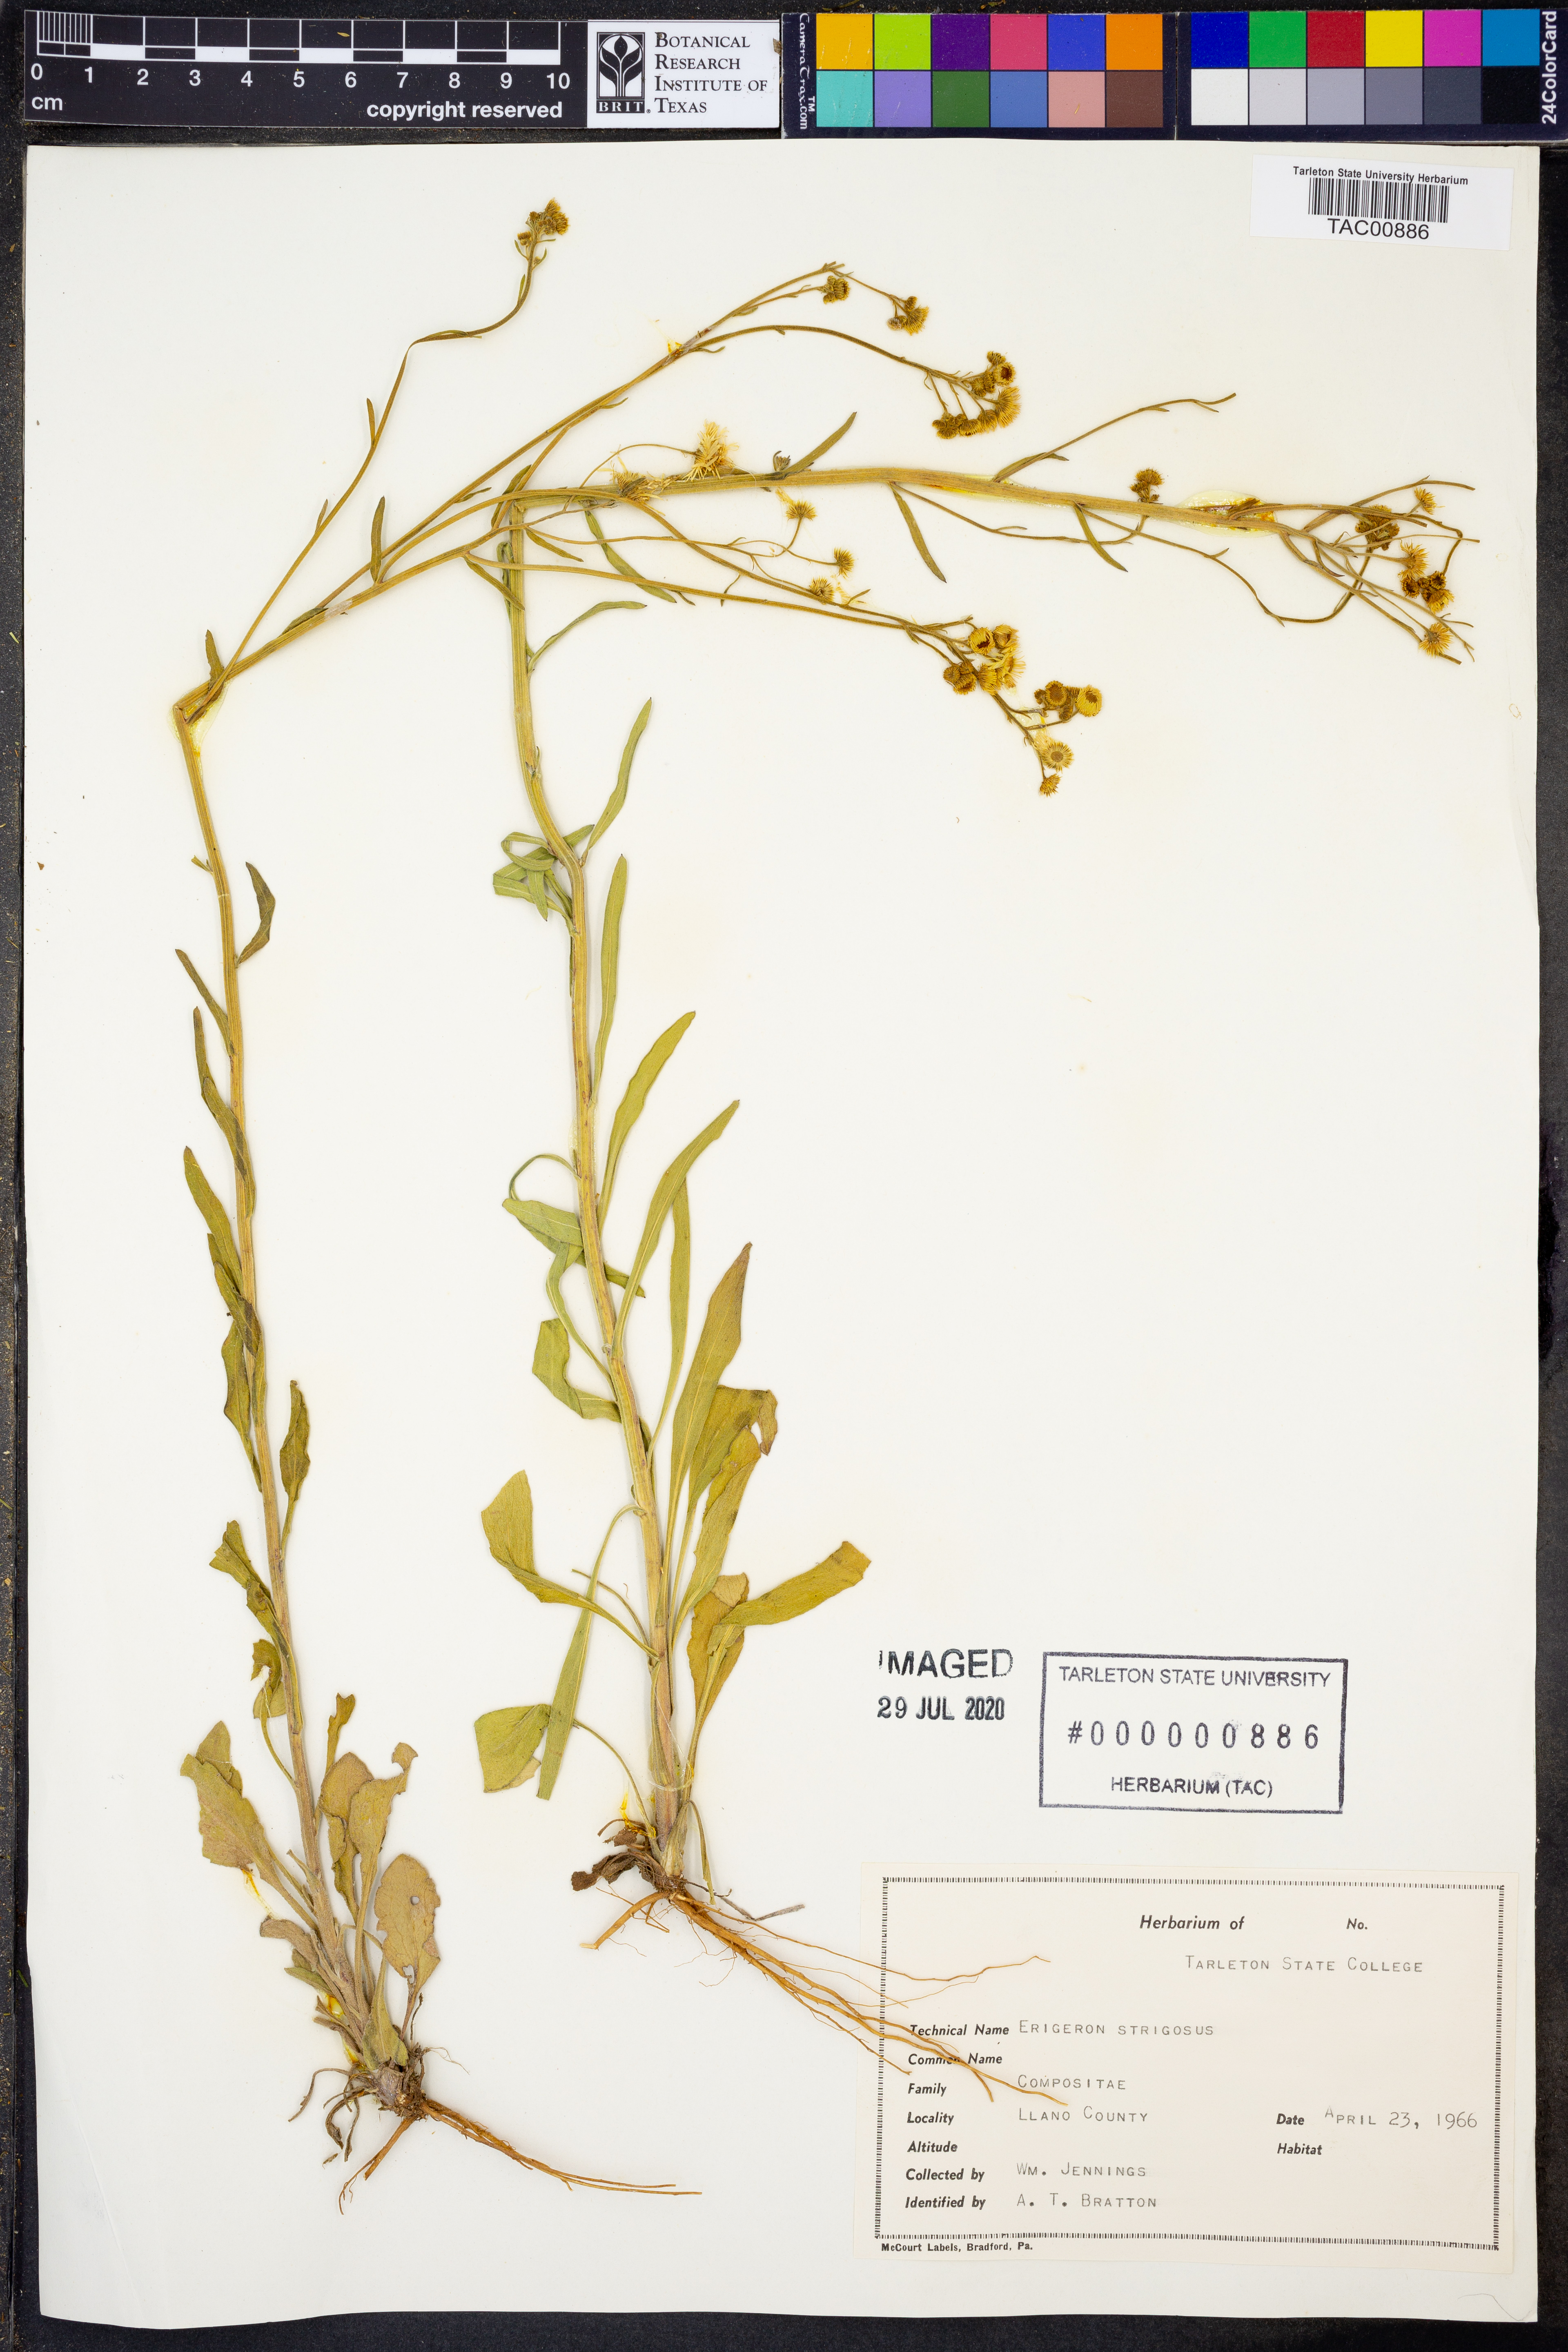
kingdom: Plantae
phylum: Tracheophyta
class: Magnoliopsida
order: Asterales
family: Asteraceae
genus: Erigeron
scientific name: Erigeron strigosus
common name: Common eastern fleabane
